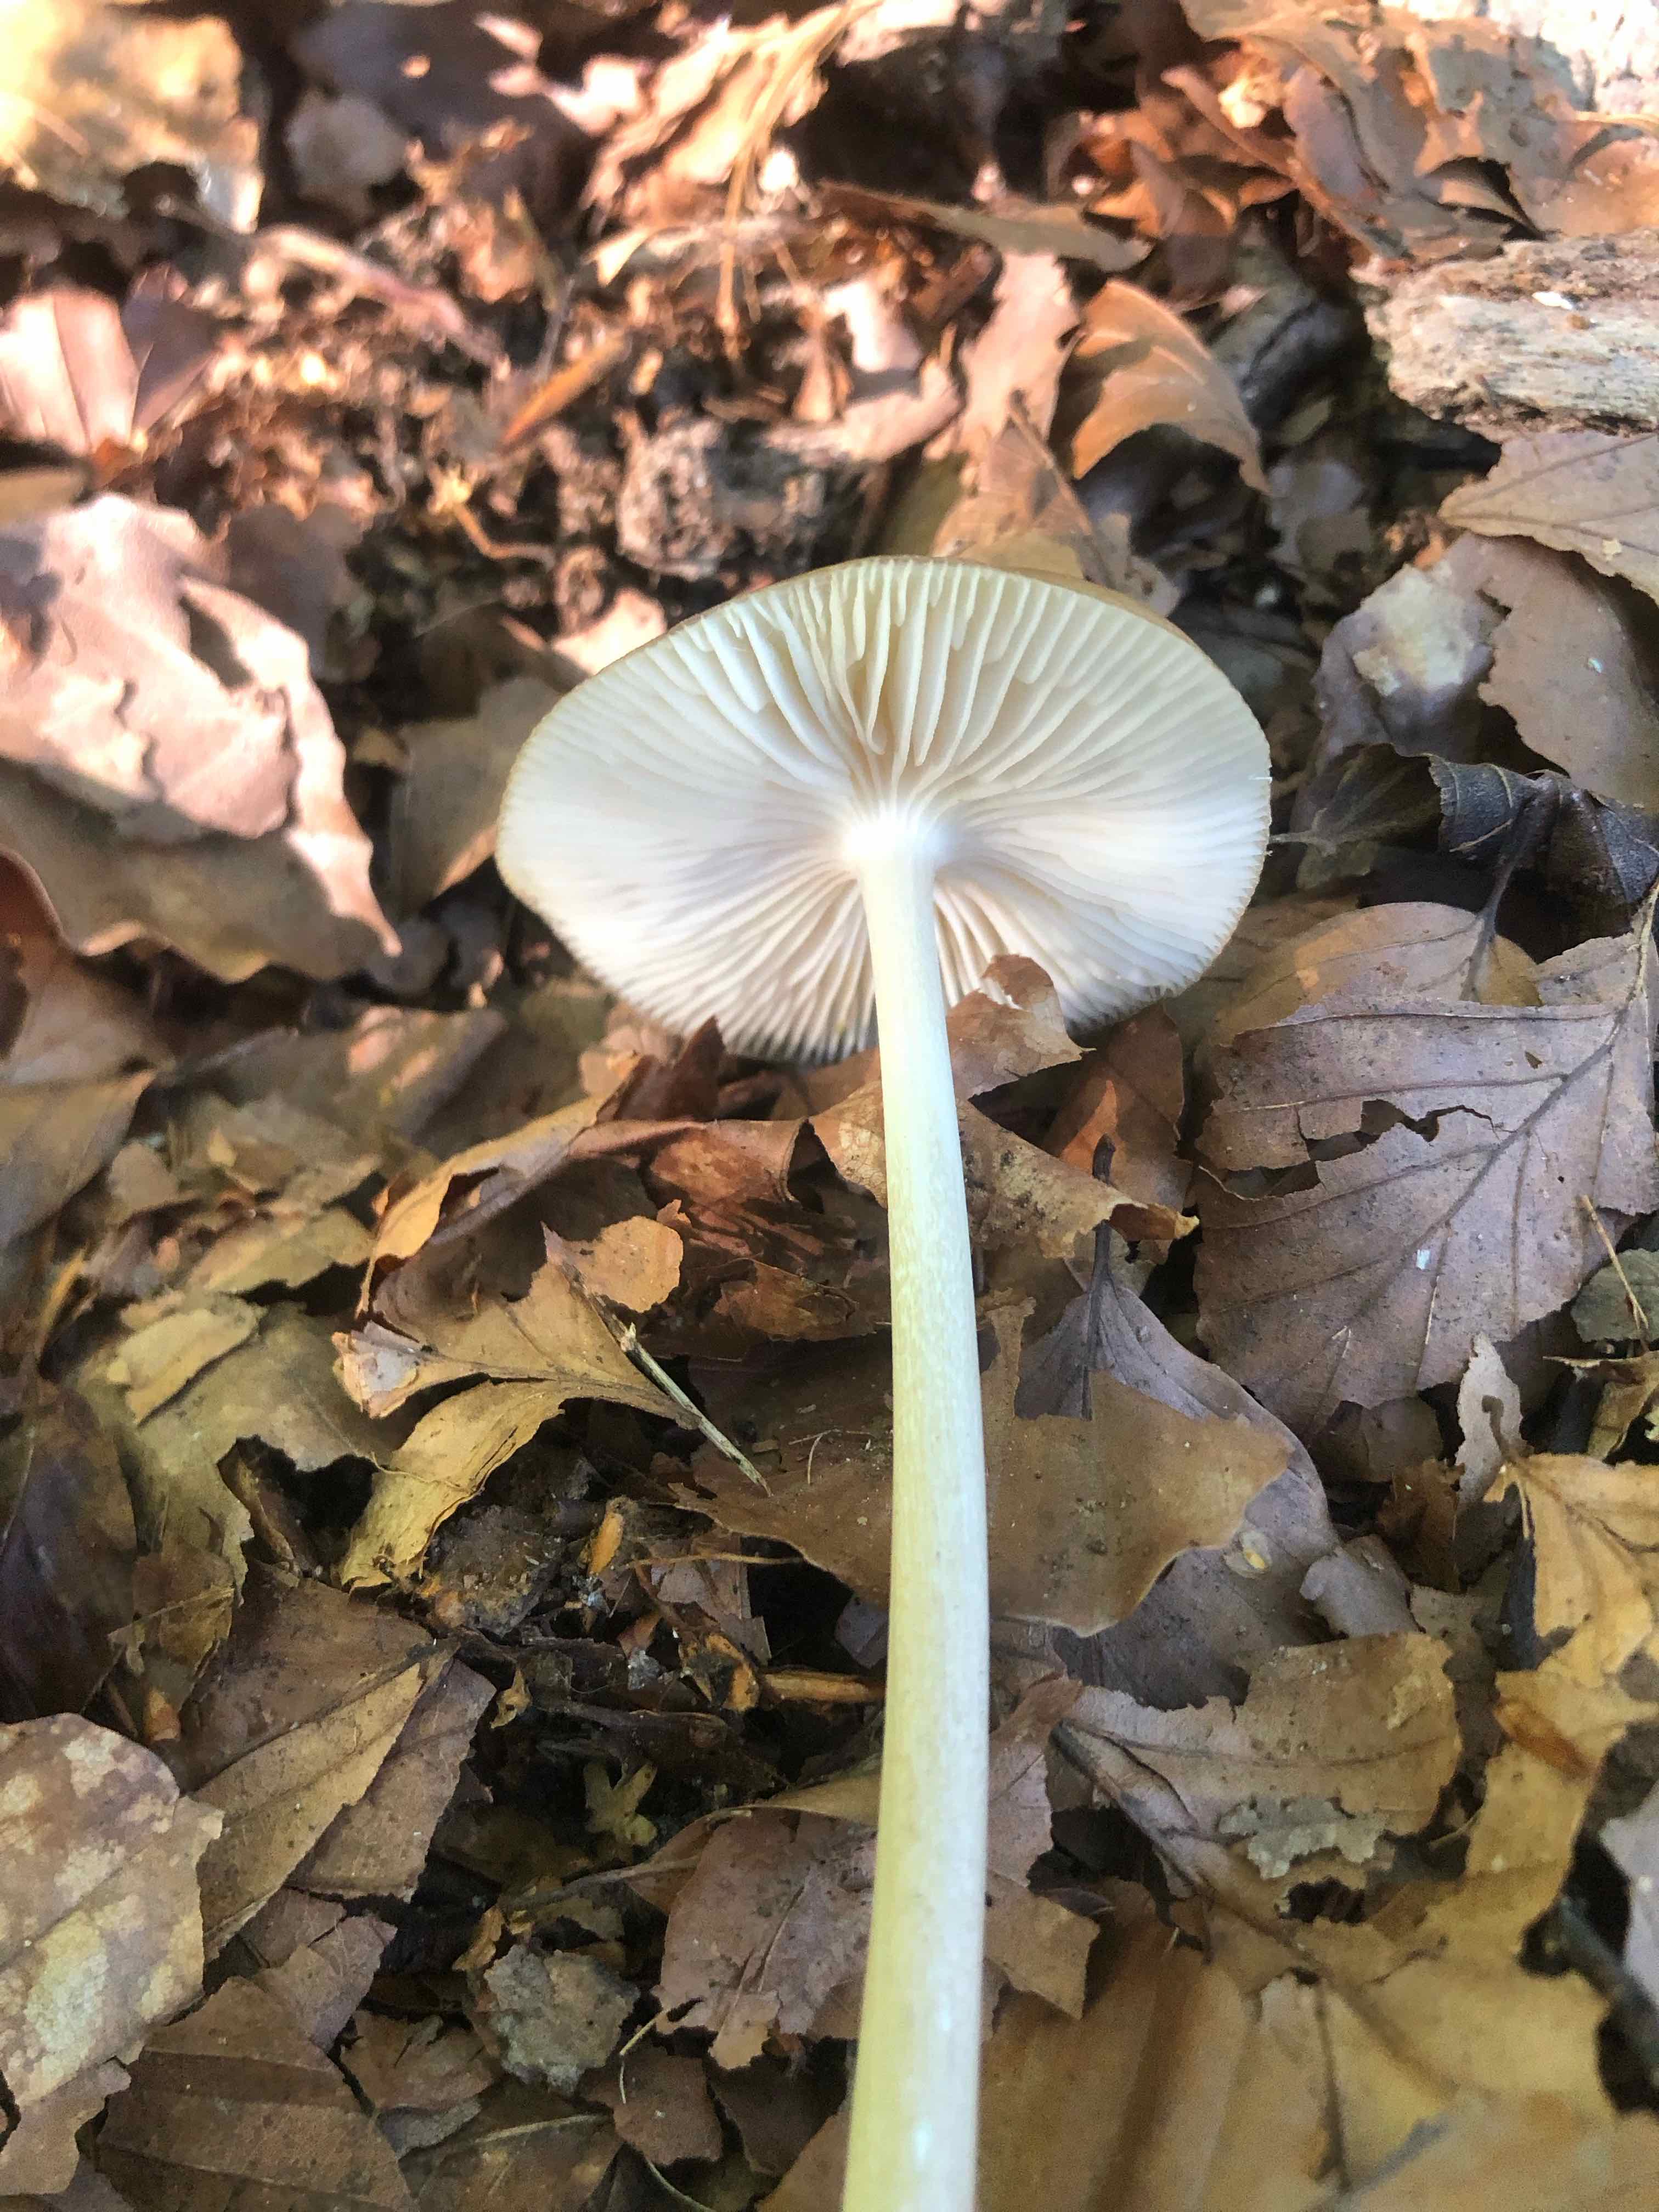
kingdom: Fungi
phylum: Basidiomycota
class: Agaricomycetes
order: Agaricales
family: Physalacriaceae
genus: Hymenopellis
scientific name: Hymenopellis radicata
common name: almindelig pælerodshat
